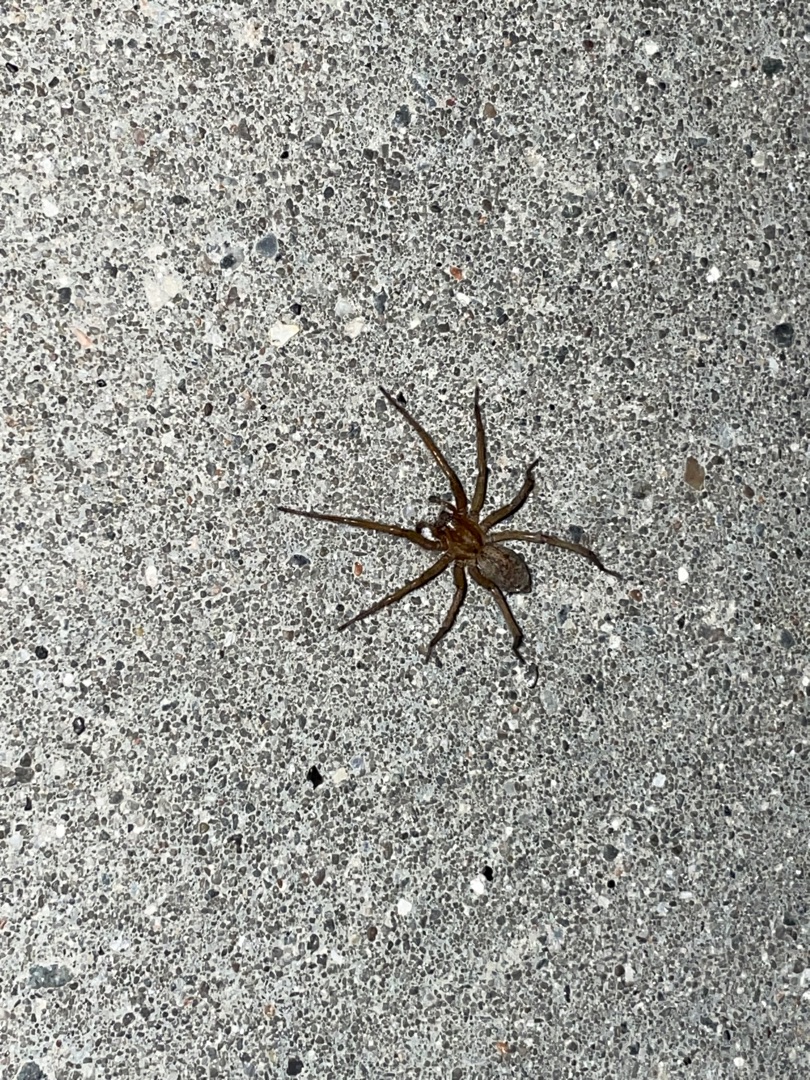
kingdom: Animalia
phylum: Arthropoda
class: Arachnida
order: Araneae
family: Agelenidae
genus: Eratigena
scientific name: Eratigena agrestis
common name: Ruderat-husedderkop
